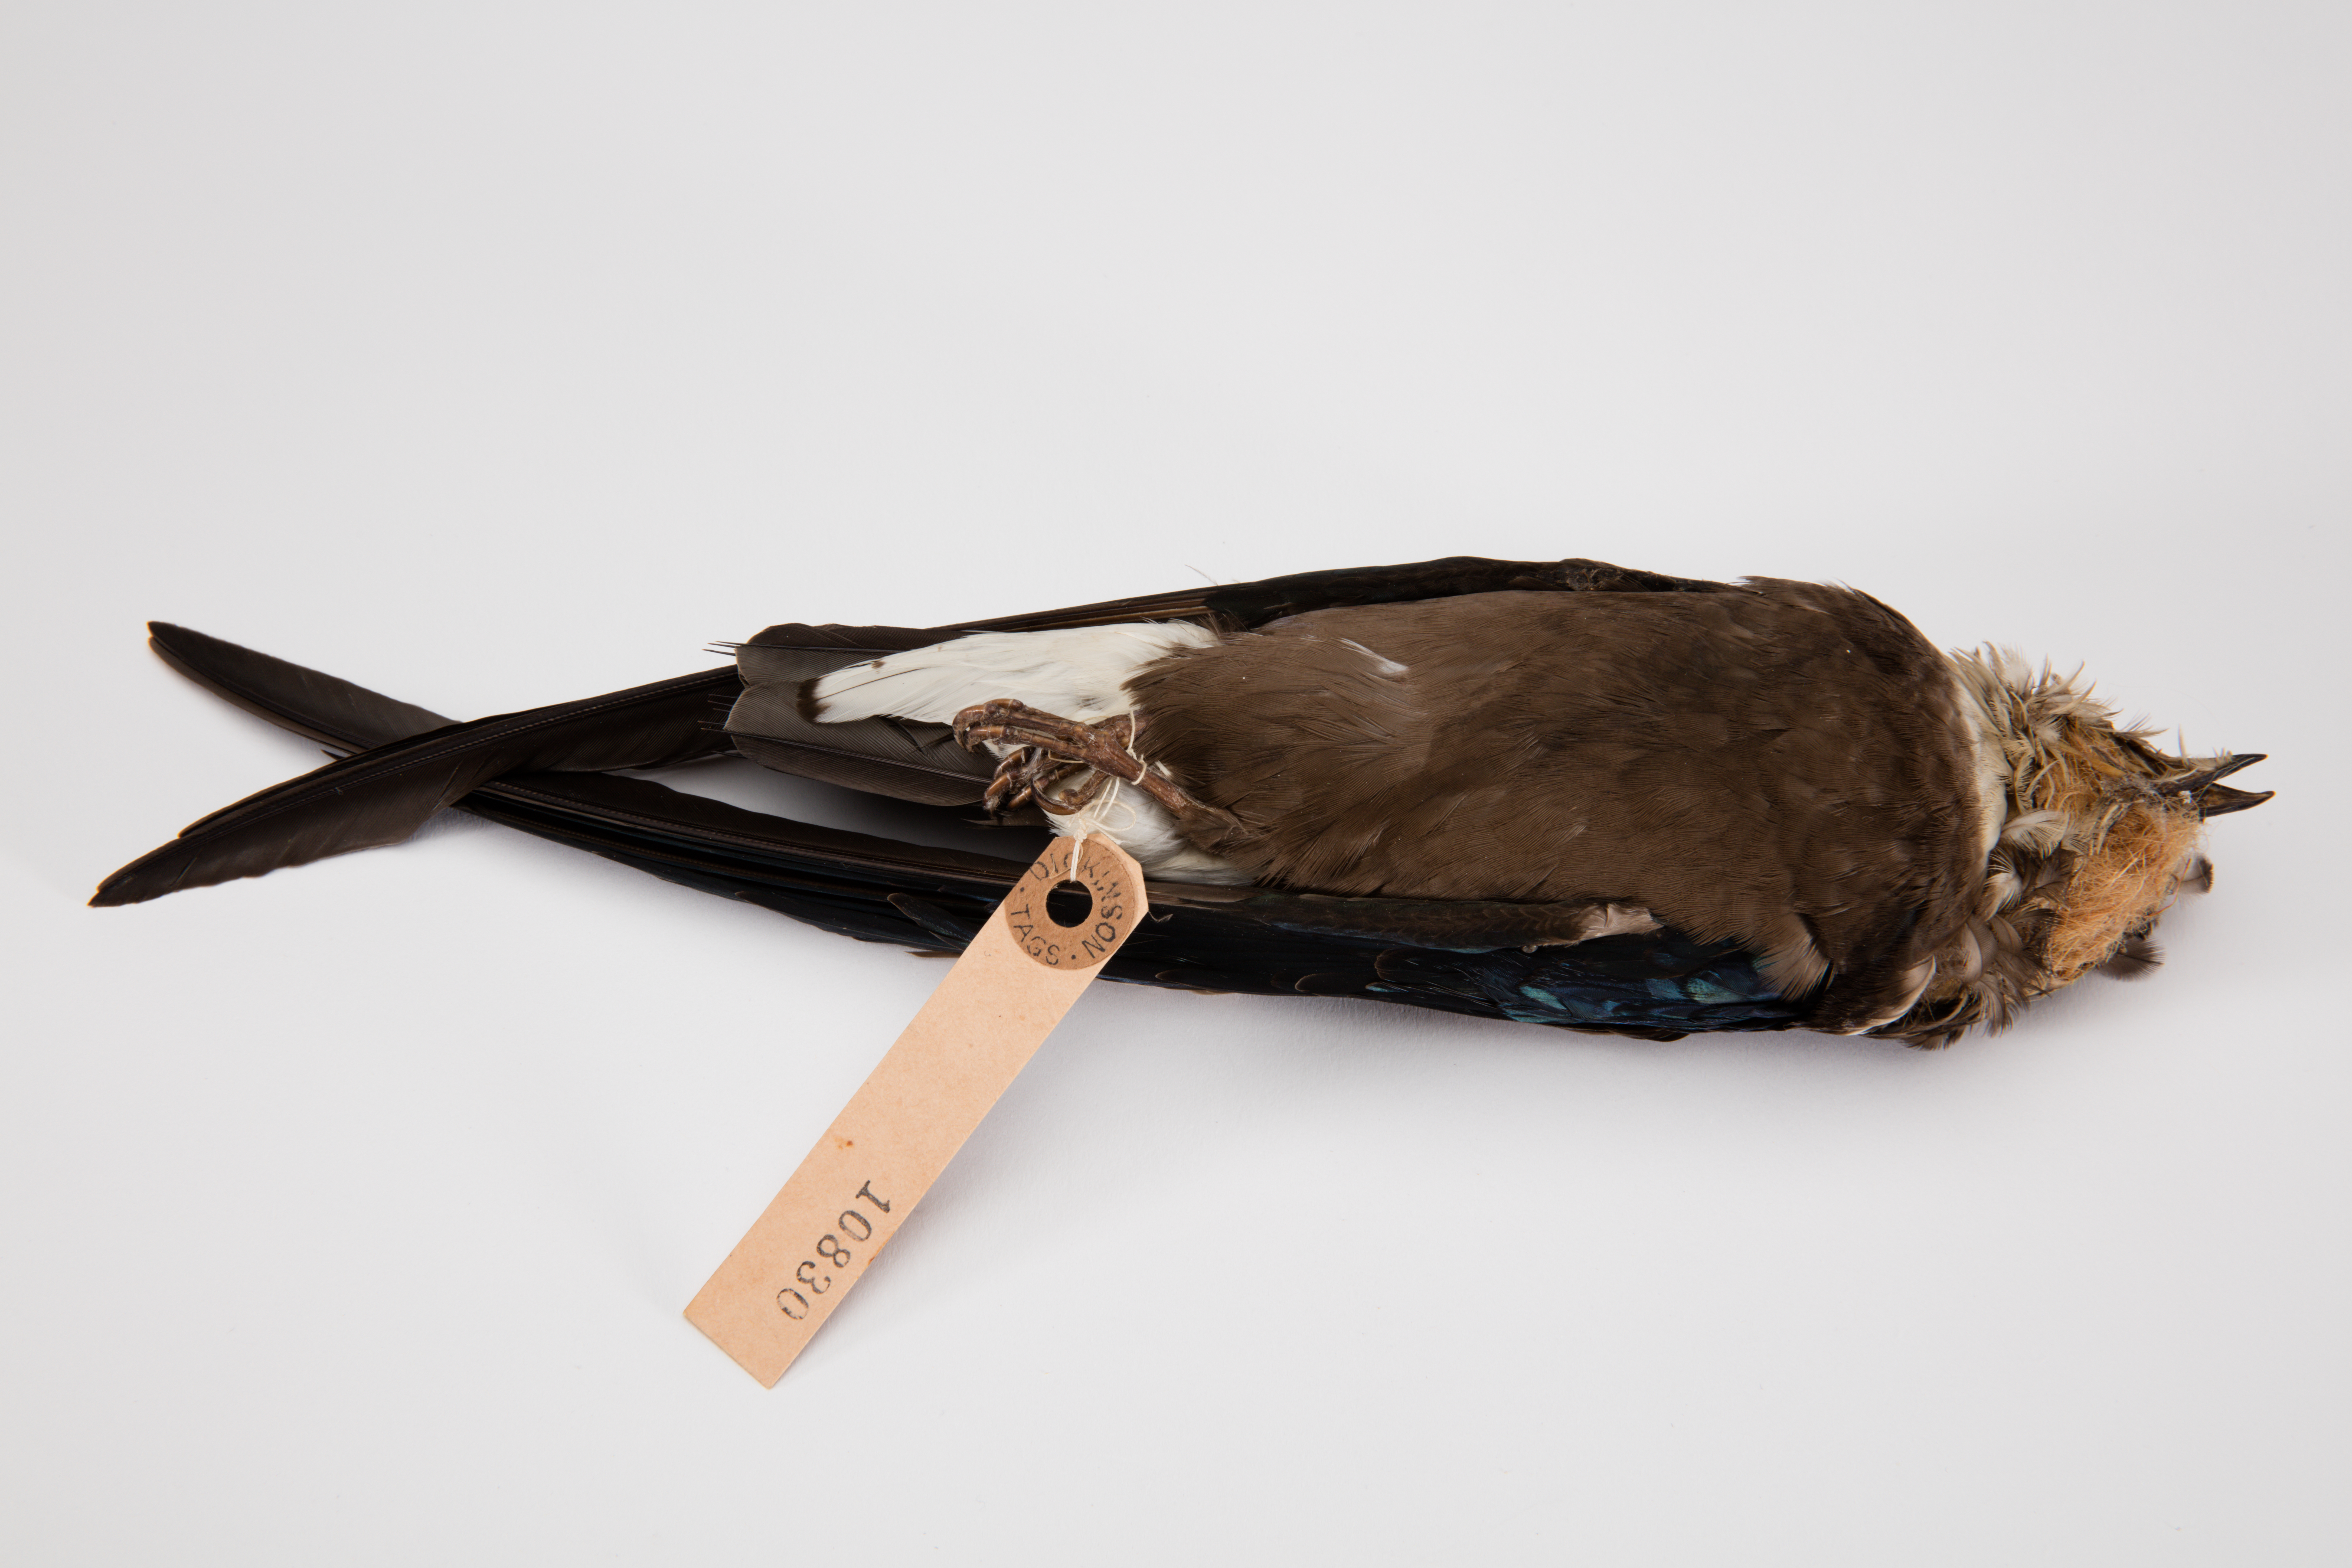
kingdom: Animalia
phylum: Chordata
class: Aves
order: Apodiformes
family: Apodidae
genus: Hirundapus
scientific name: Hirundapus caudacutus
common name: White-throated needletail
